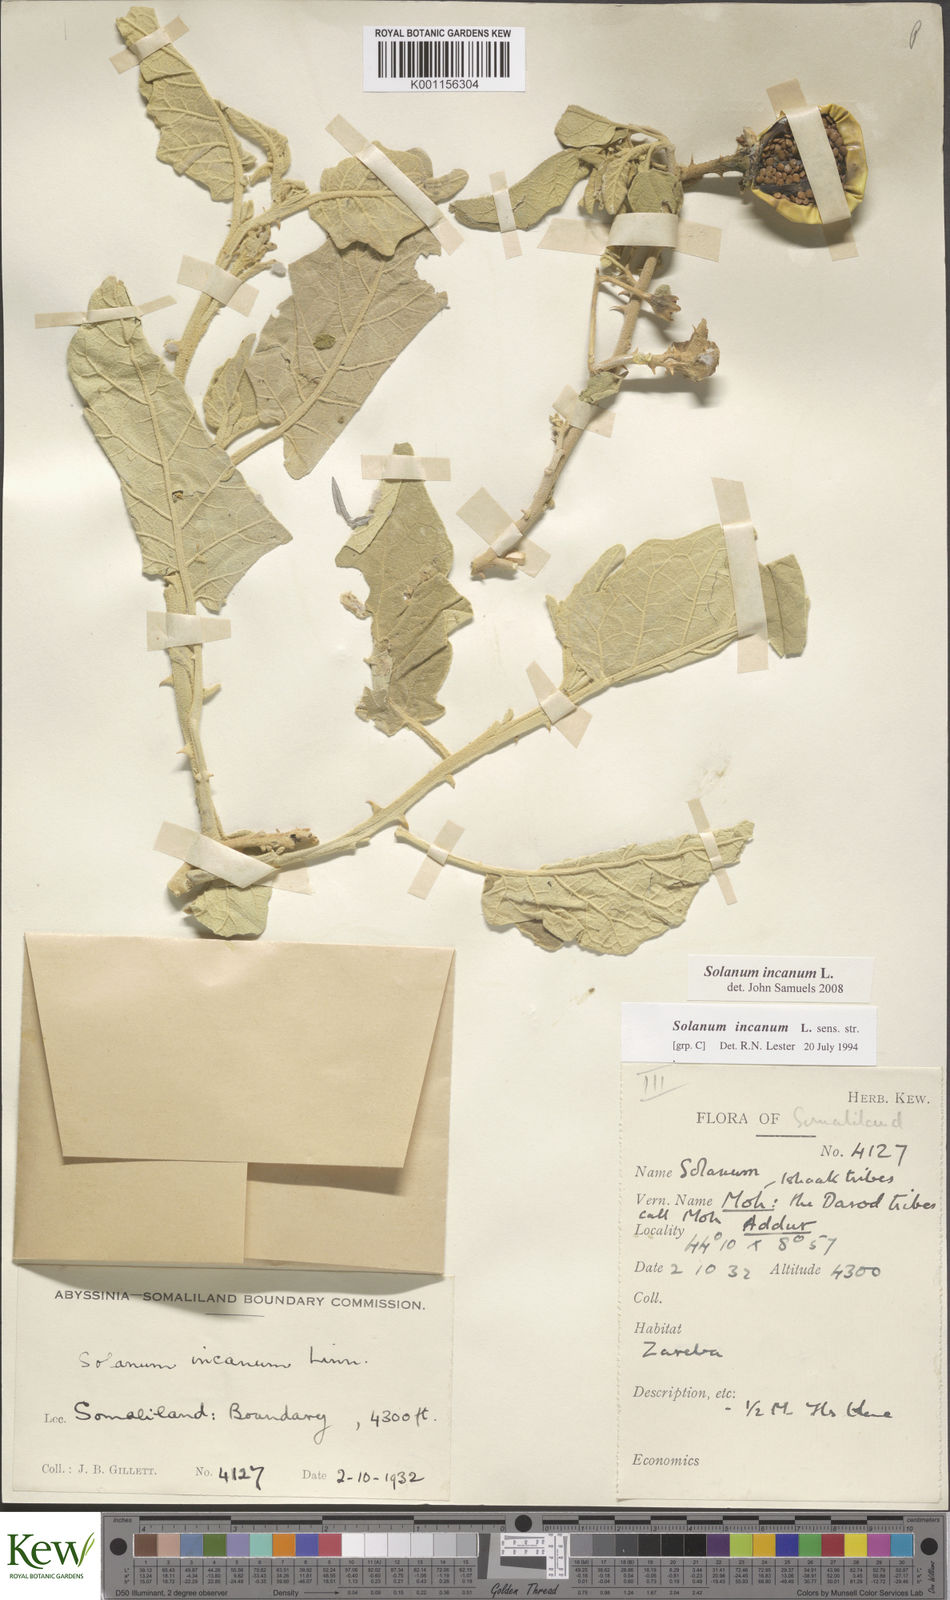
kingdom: Plantae
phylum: Tracheophyta
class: Magnoliopsida
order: Solanales
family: Solanaceae
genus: Solanum
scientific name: Solanum incanum
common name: Bitter apple
